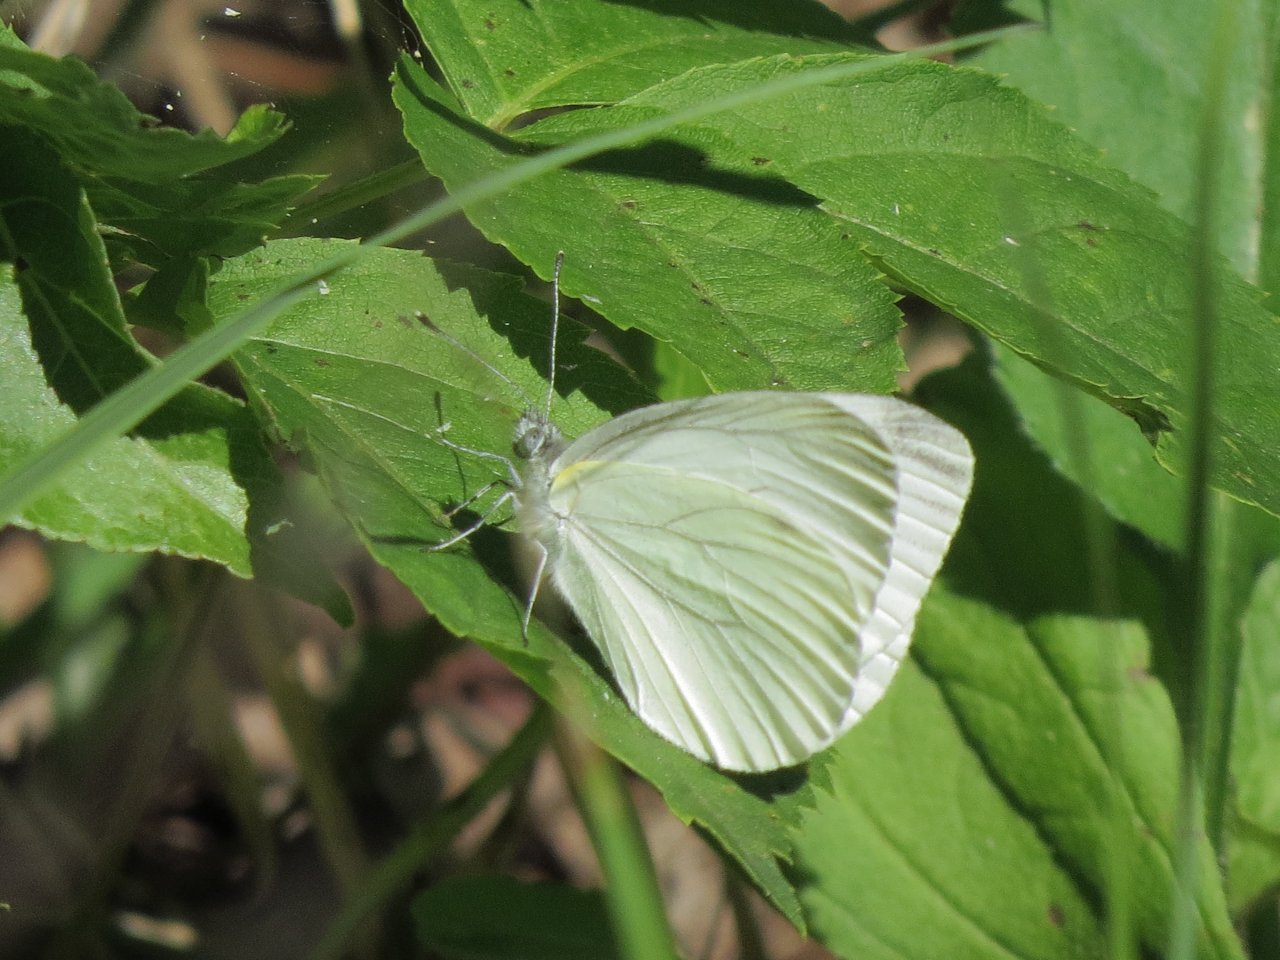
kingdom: Animalia
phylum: Arthropoda
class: Insecta
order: Lepidoptera
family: Pieridae
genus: Pieris
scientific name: Pieris oleracea
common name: Mustard White
